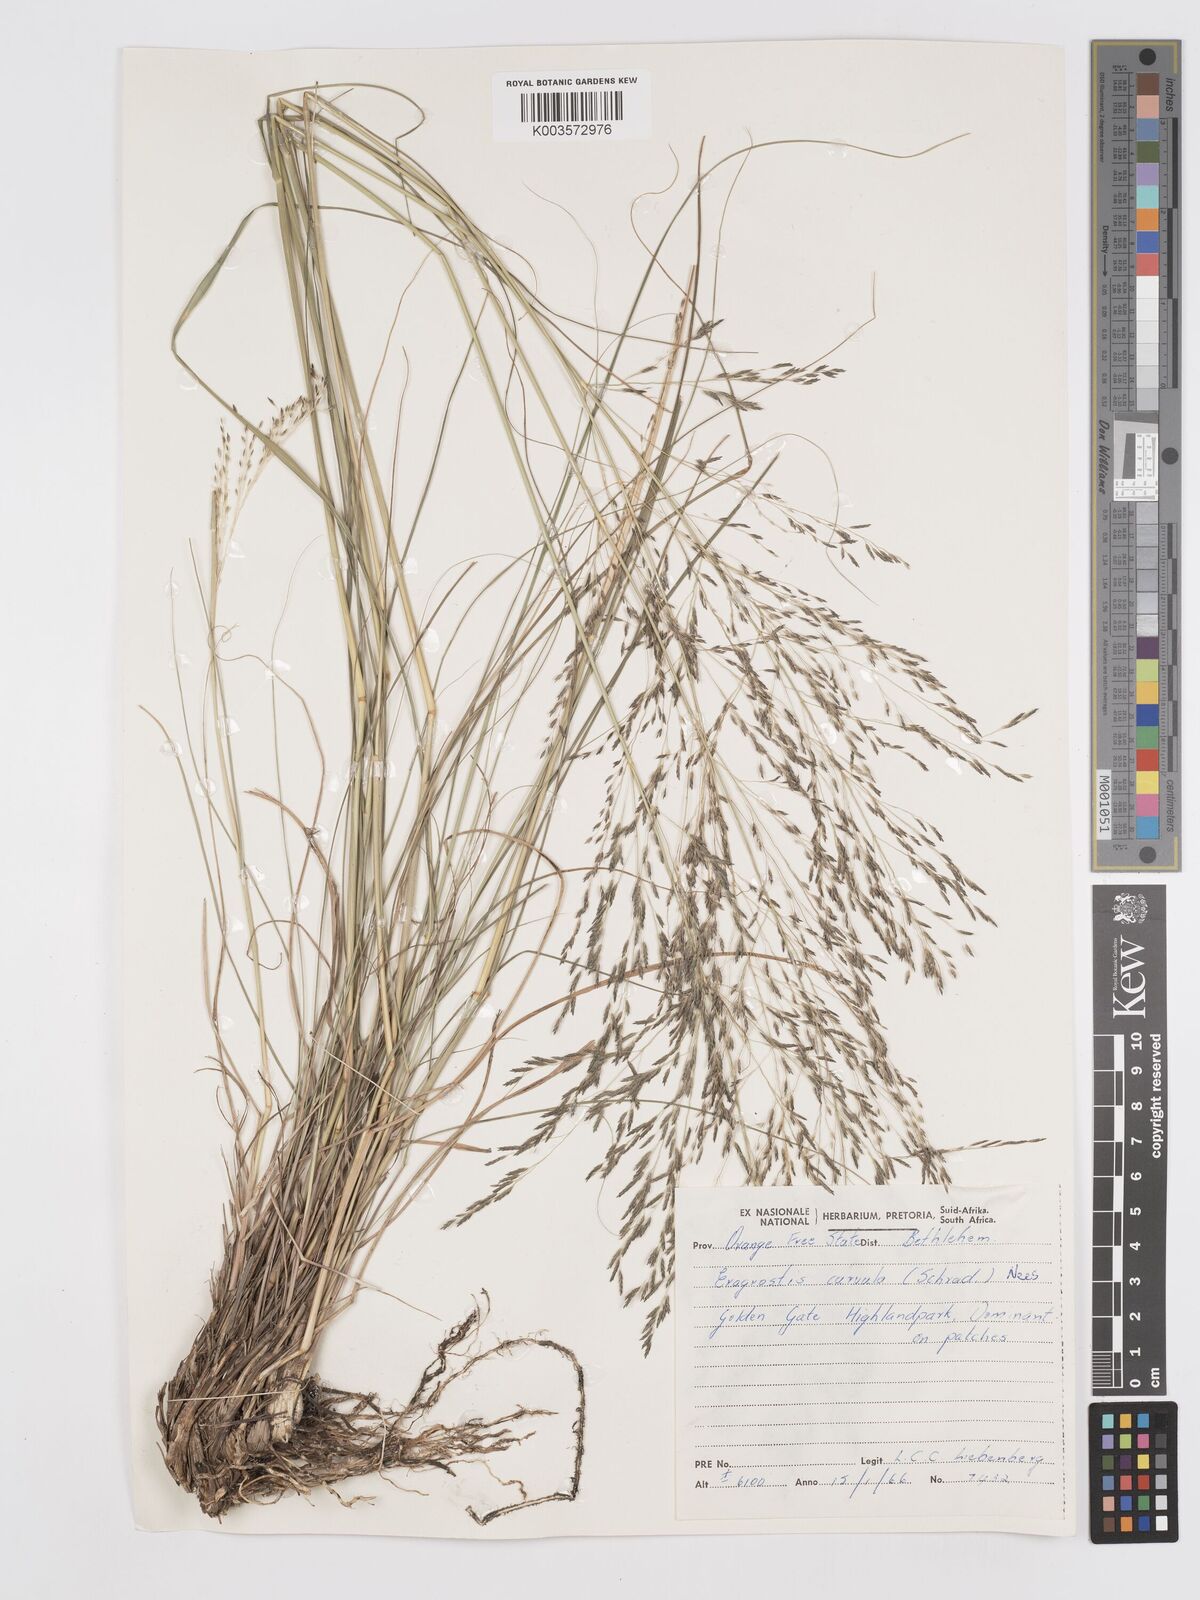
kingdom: Plantae
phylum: Tracheophyta
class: Liliopsida
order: Poales
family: Poaceae
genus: Eragrostis
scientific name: Eragrostis curvula
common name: African love-grass
